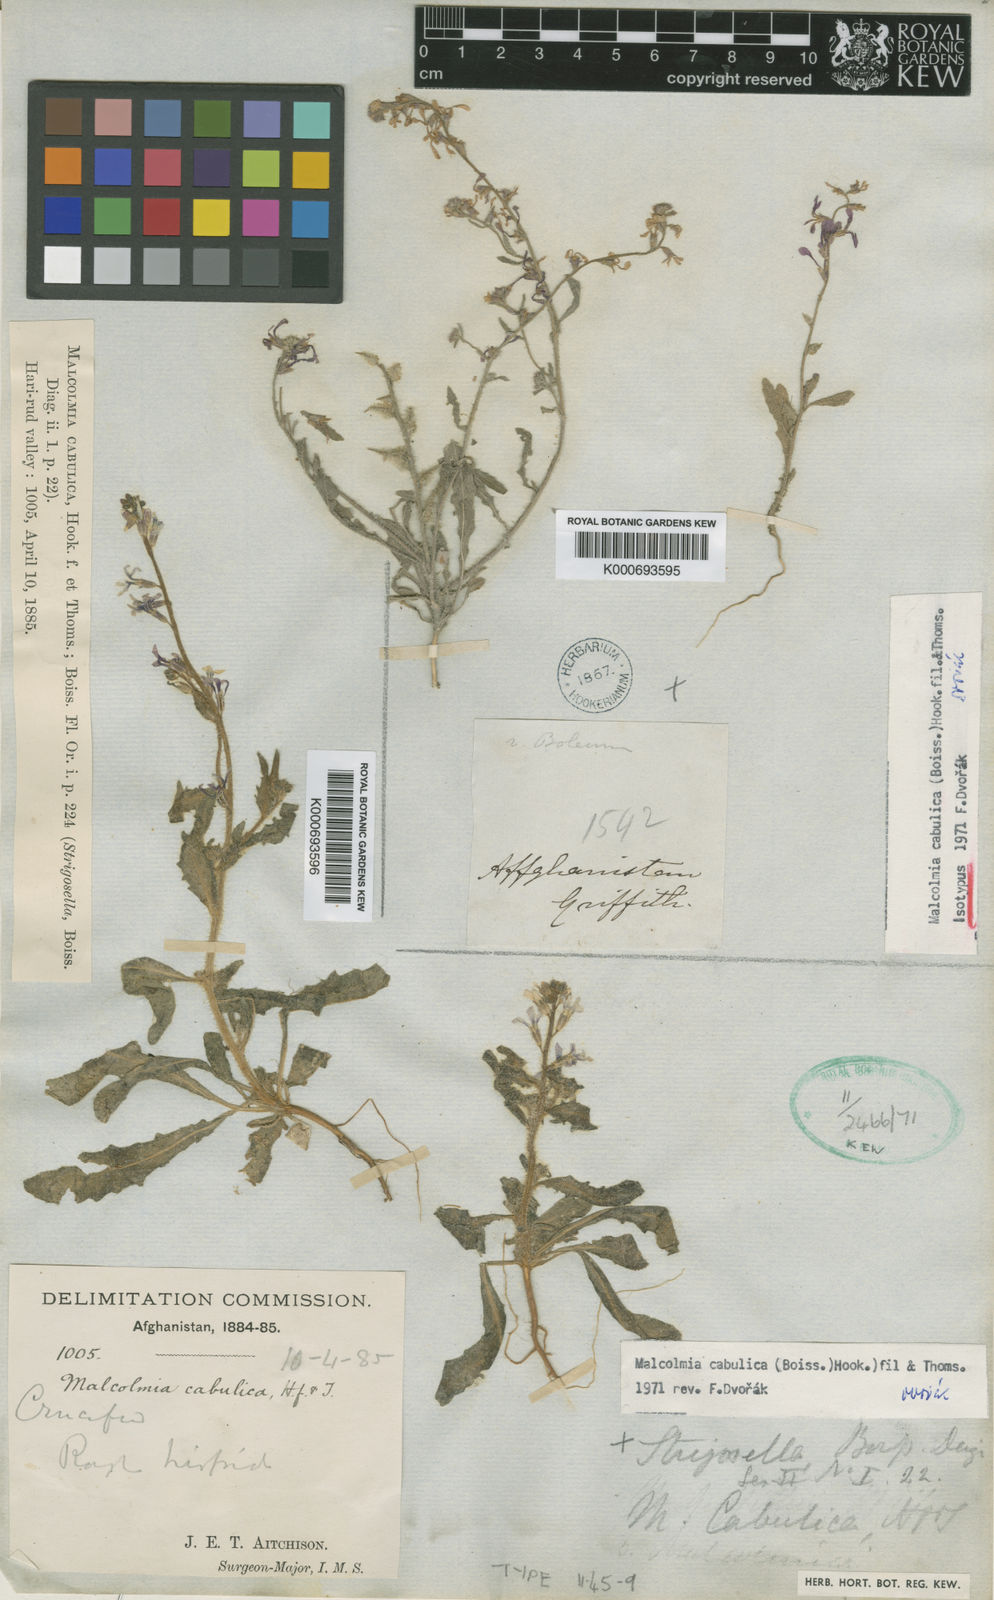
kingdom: Plantae
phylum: Tracheophyta
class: Magnoliopsida
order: Brassicales
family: Brassicaceae
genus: Strigosella
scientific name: Strigosella cabulica
